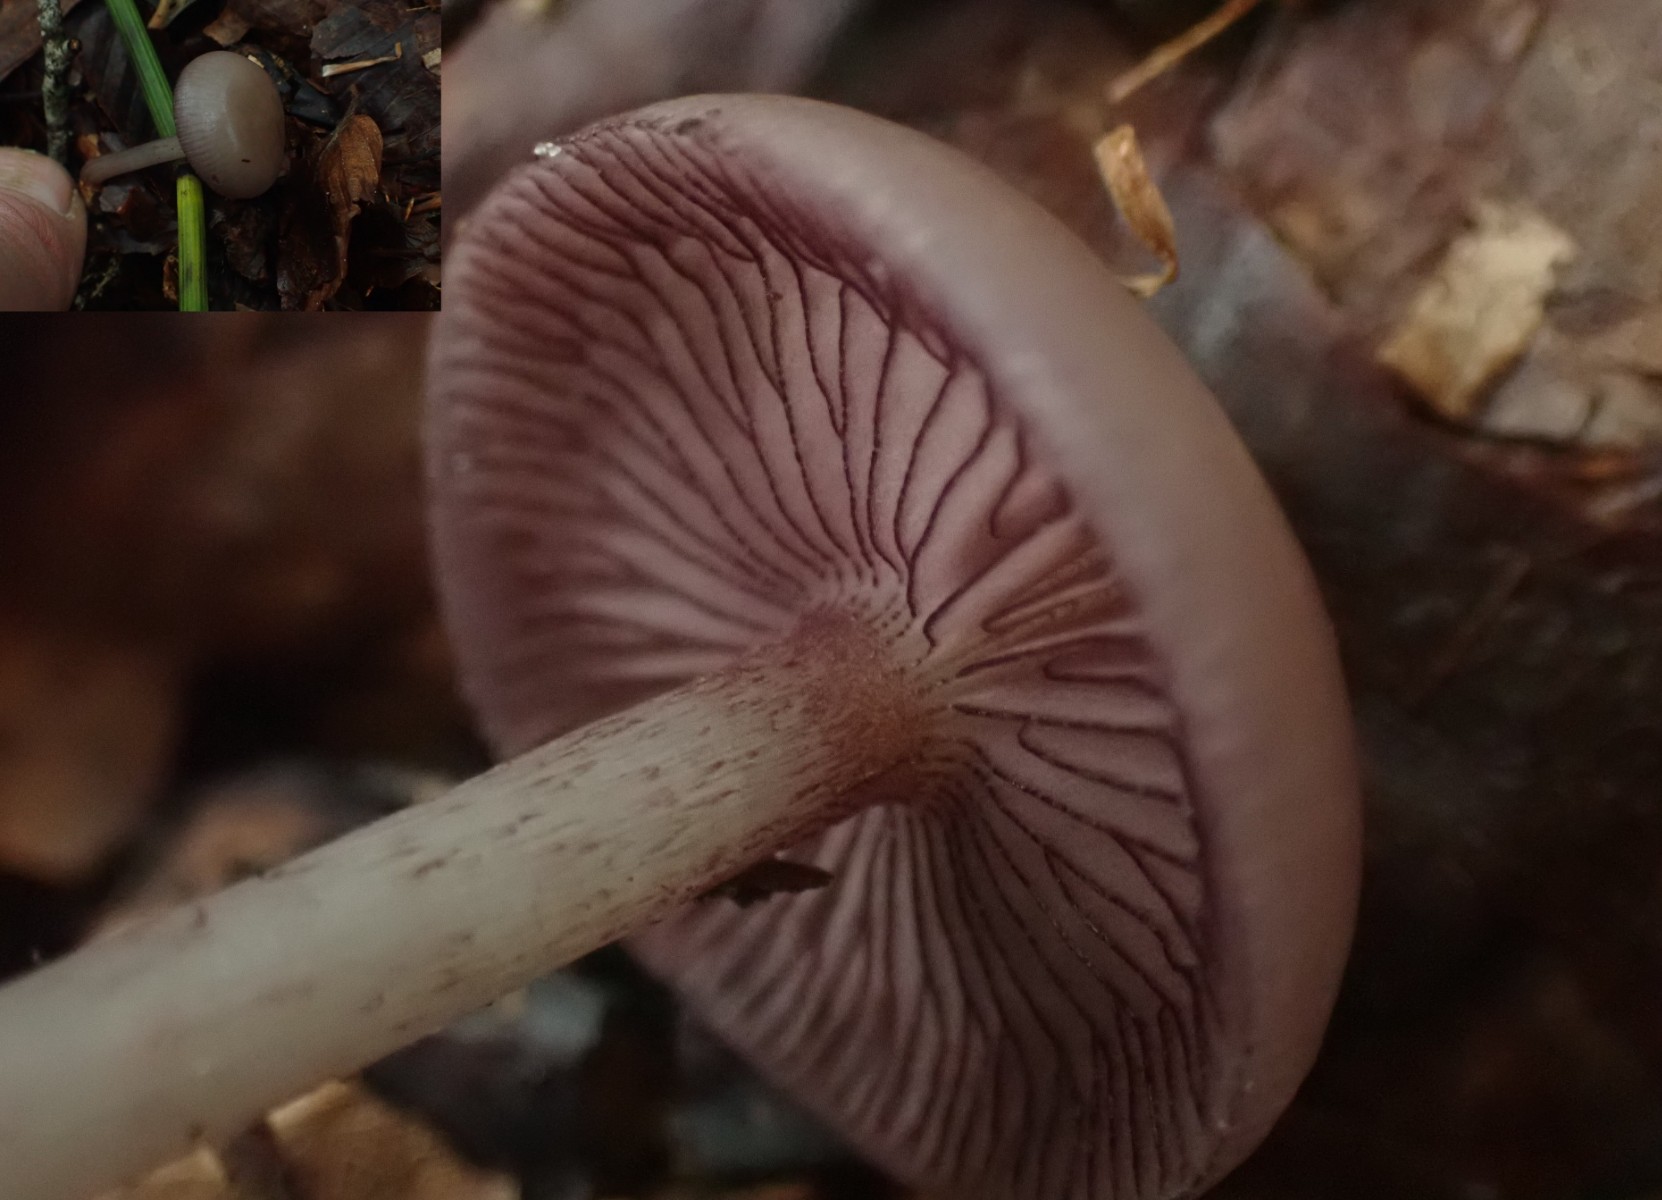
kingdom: Fungi
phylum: Basidiomycota
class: Agaricomycetes
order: Agaricales
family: Mycenaceae
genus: Mycena
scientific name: Mycena pelianthina
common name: mørkbladet huesvamp
